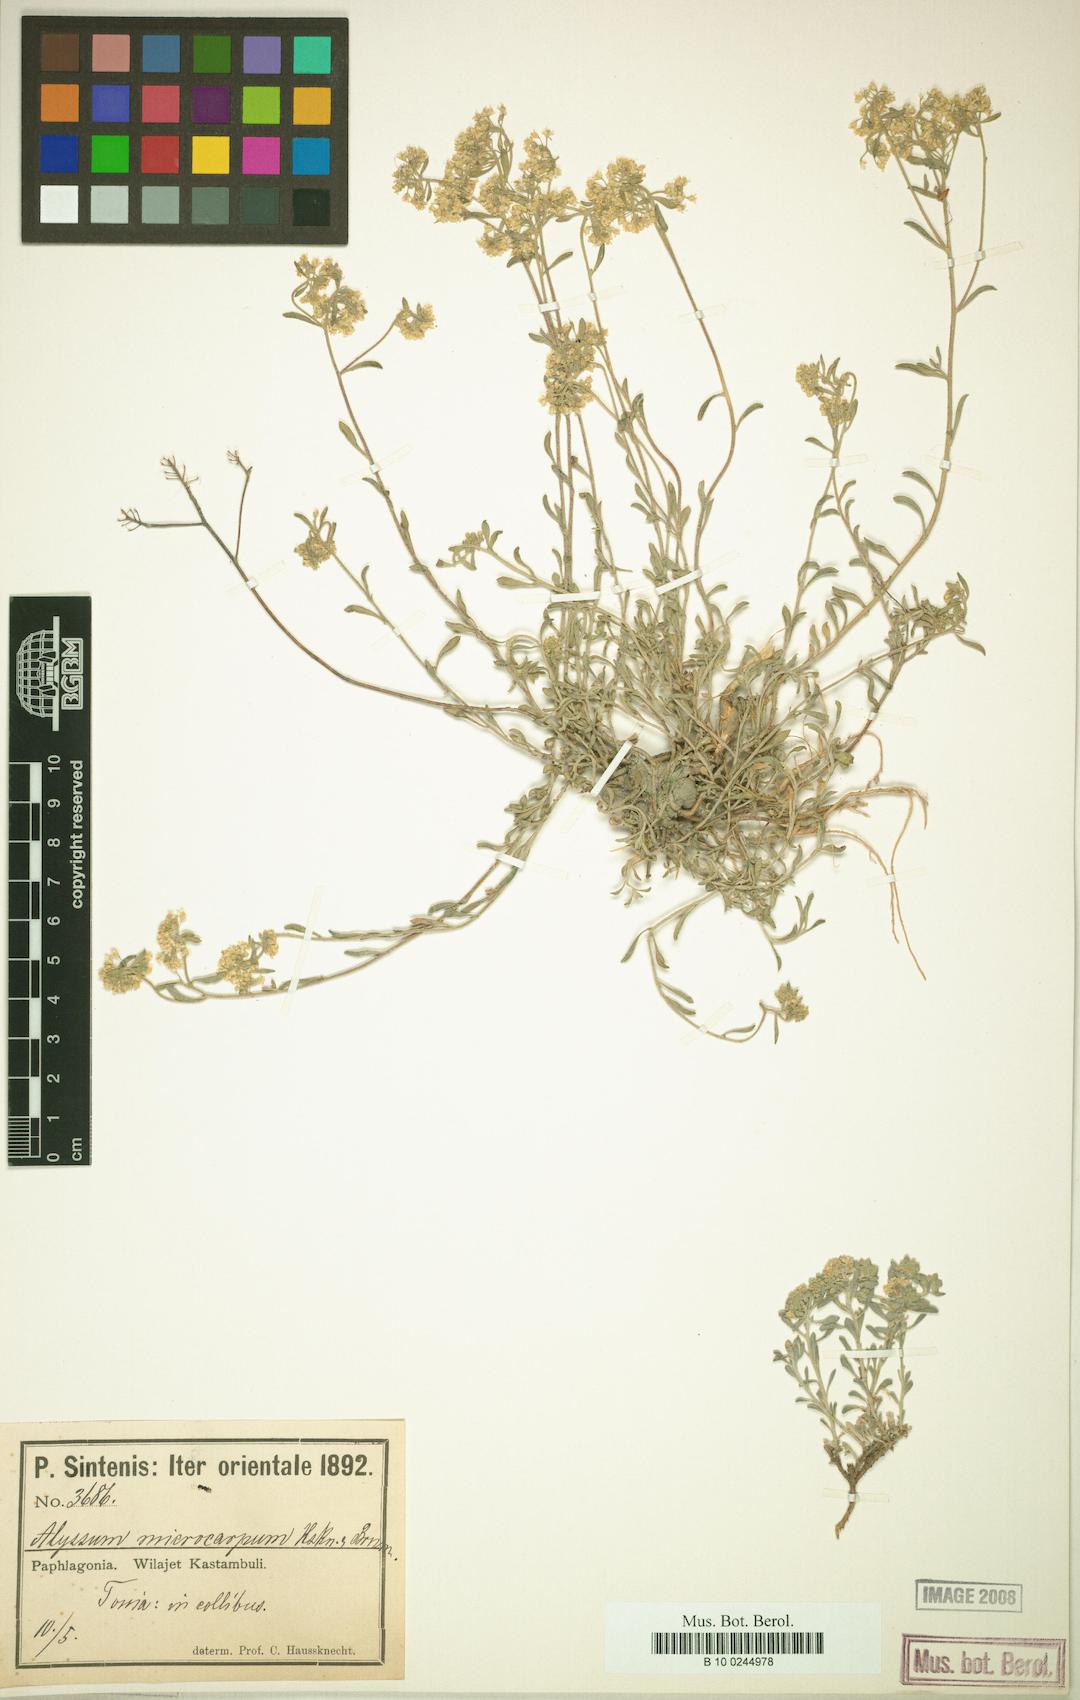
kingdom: Plantae
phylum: Tracheophyta
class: Magnoliopsida
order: Brassicales
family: Brassicaceae
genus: Aurinia
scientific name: Aurinia petraea
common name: Goldentuft
